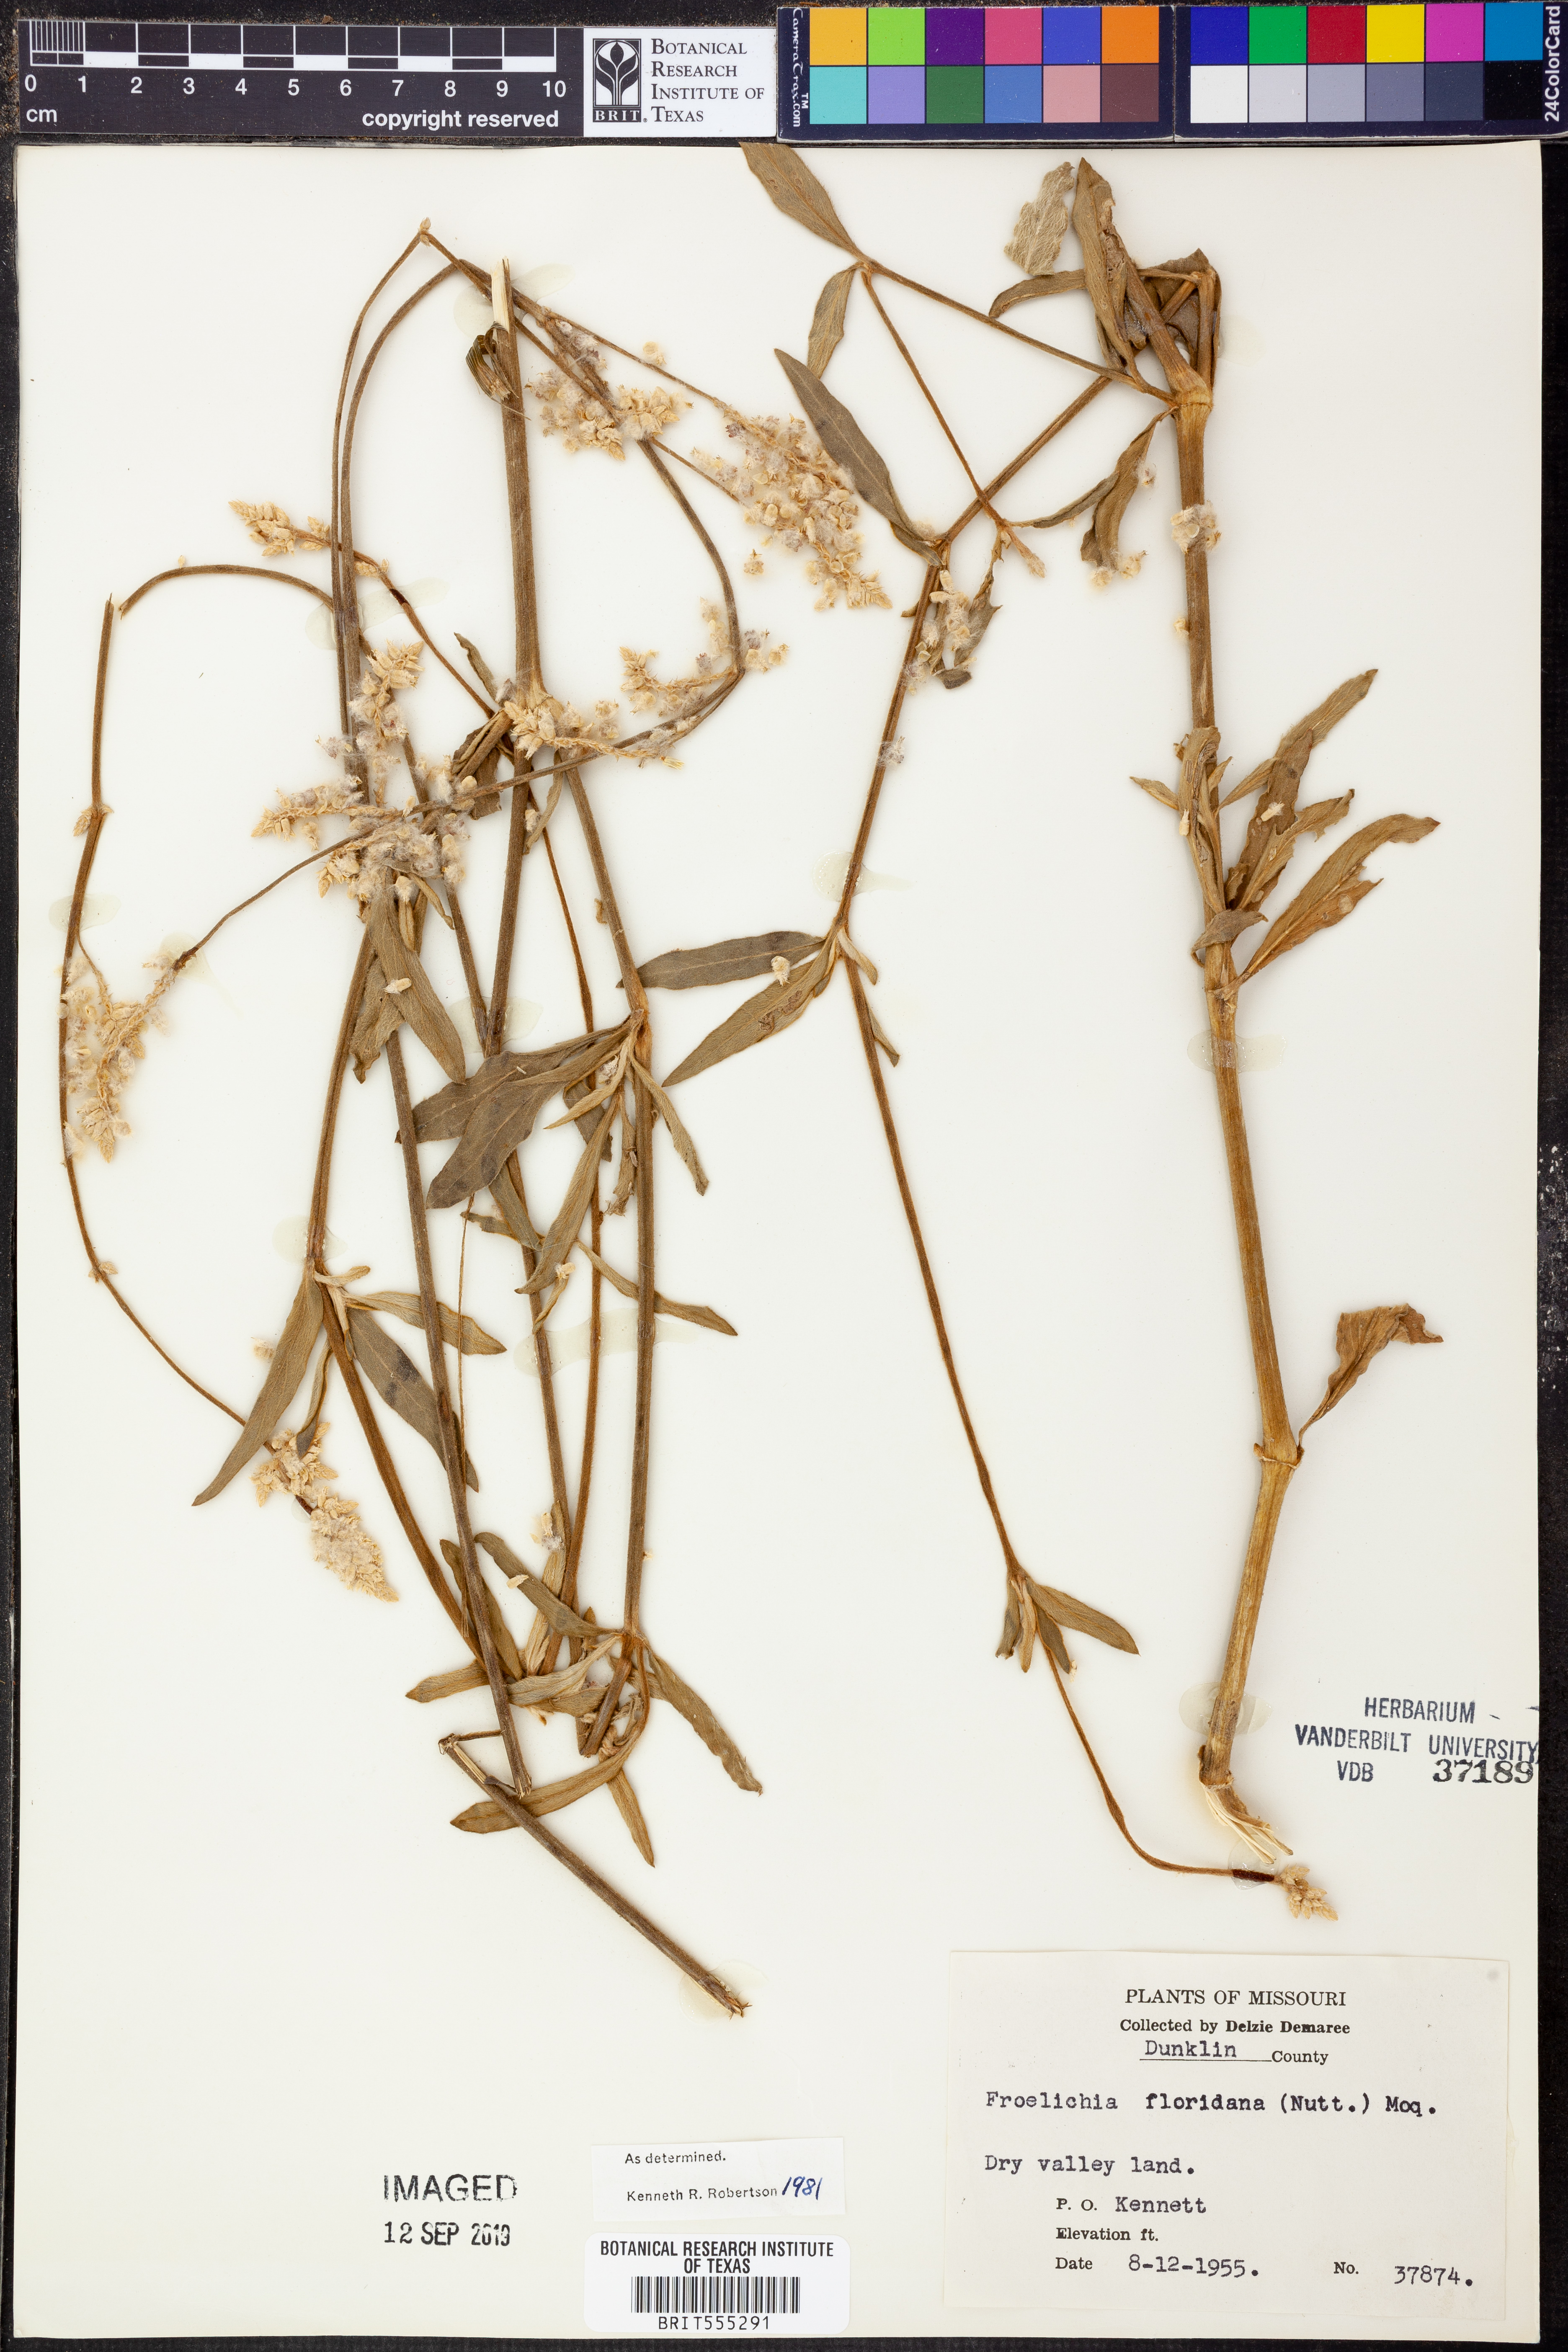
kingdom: Plantae
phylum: Tracheophyta
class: Magnoliopsida
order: Caryophyllales
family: Amaranthaceae
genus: Froelichia
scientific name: Froelichia floridana
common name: Florida snake-cotton
